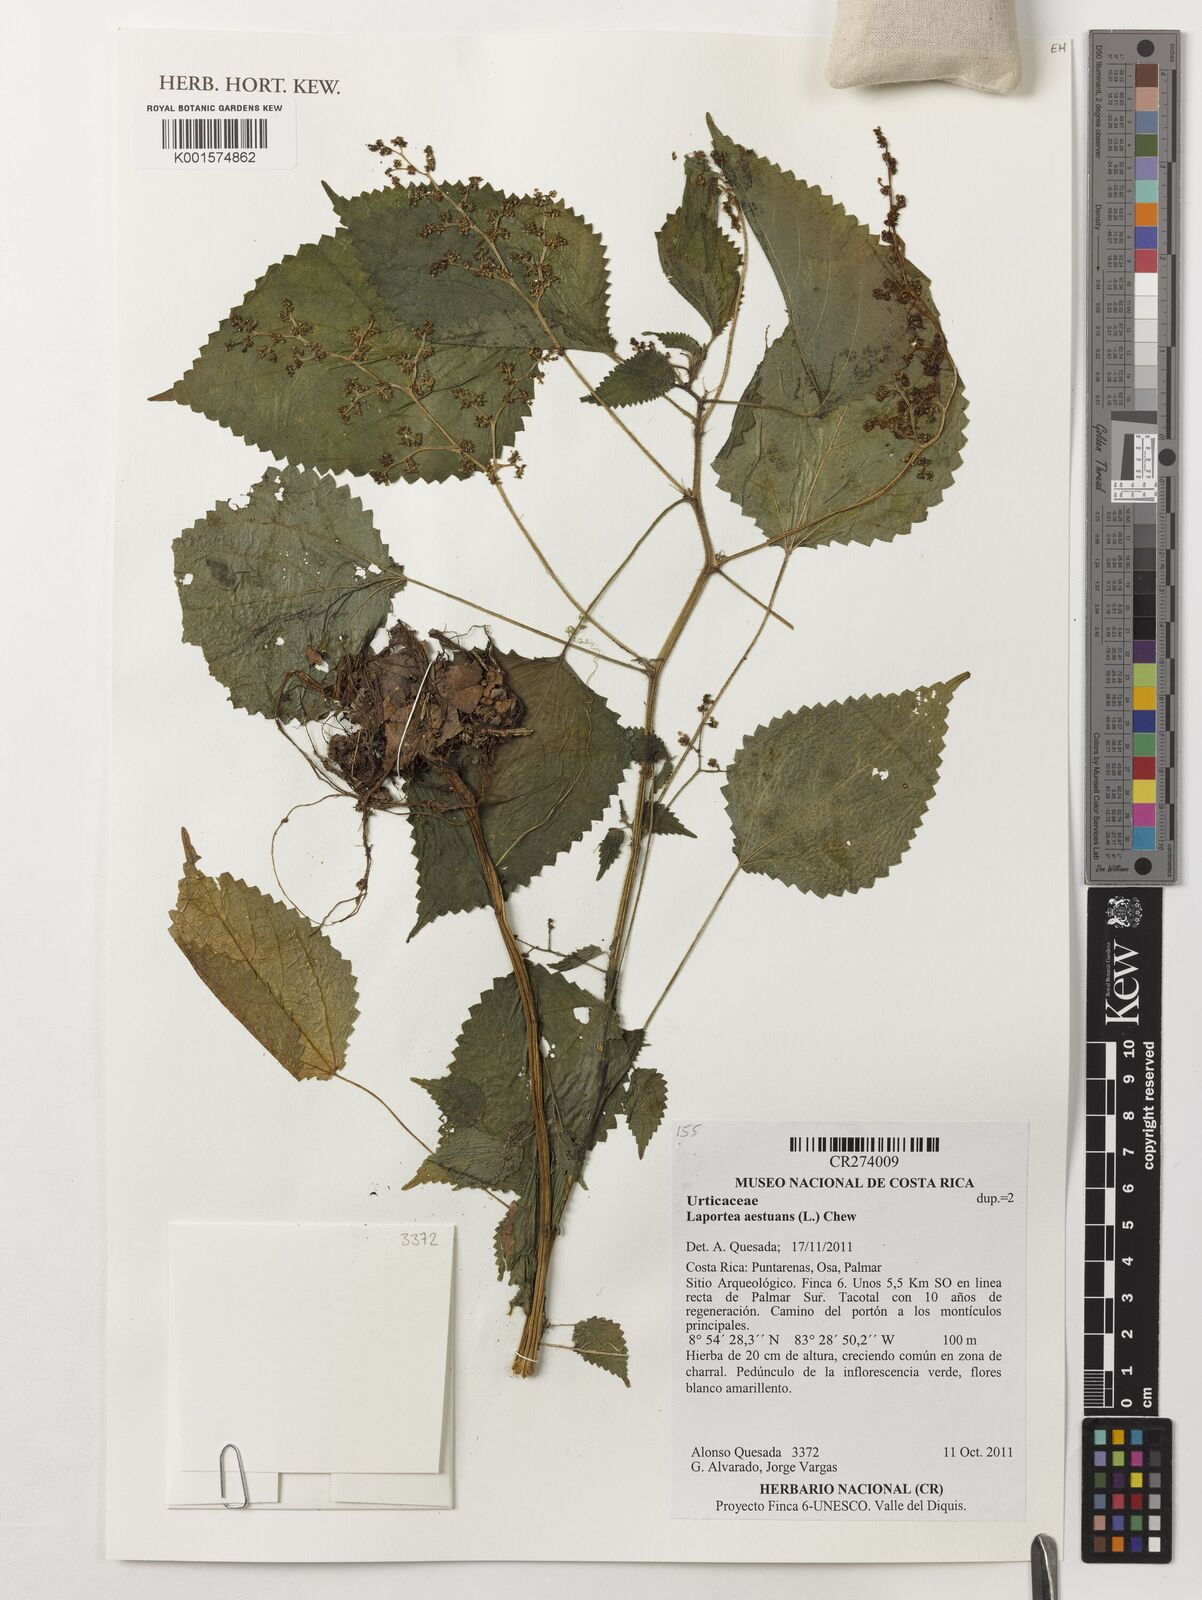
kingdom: Plantae
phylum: Tracheophyta
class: Magnoliopsida
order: Rosales
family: Urticaceae
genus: Laportea
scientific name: Laportea aestuans
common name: West indian woodnettle
